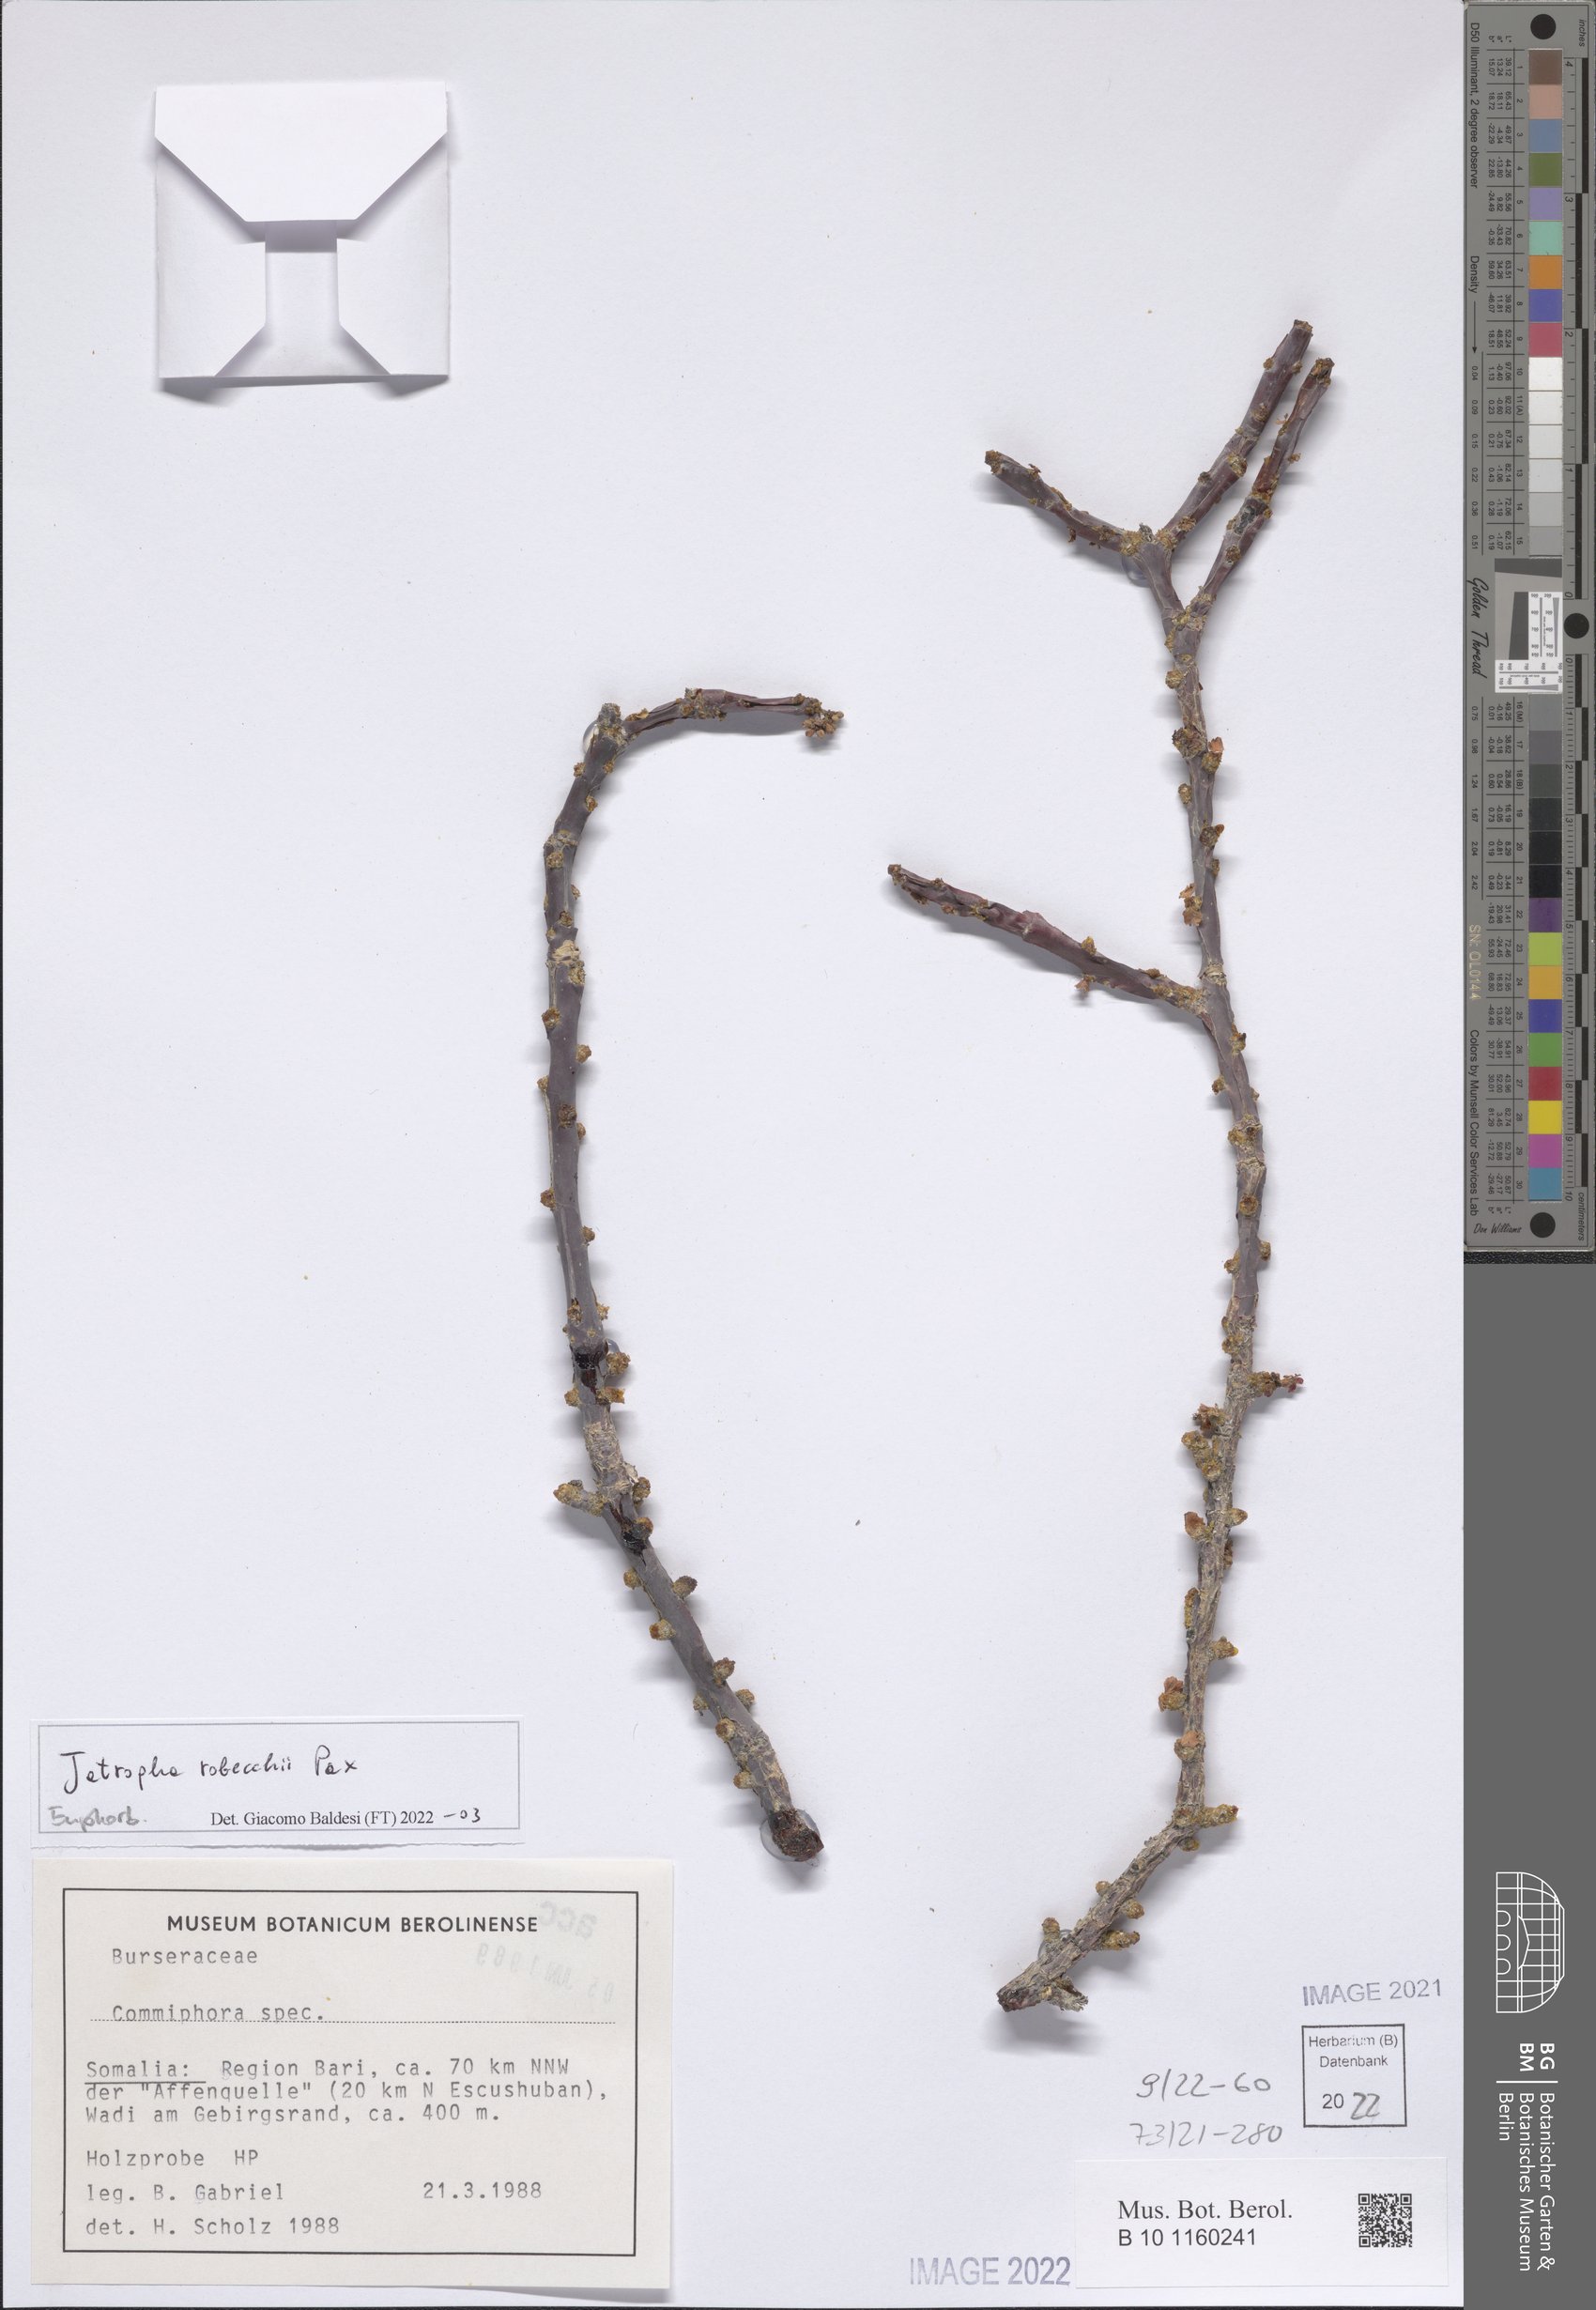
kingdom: Plantae
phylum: Tracheophyta
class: Magnoliopsida
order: Malpighiales
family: Euphorbiaceae
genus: Jatropha
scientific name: Jatropha robecchii
